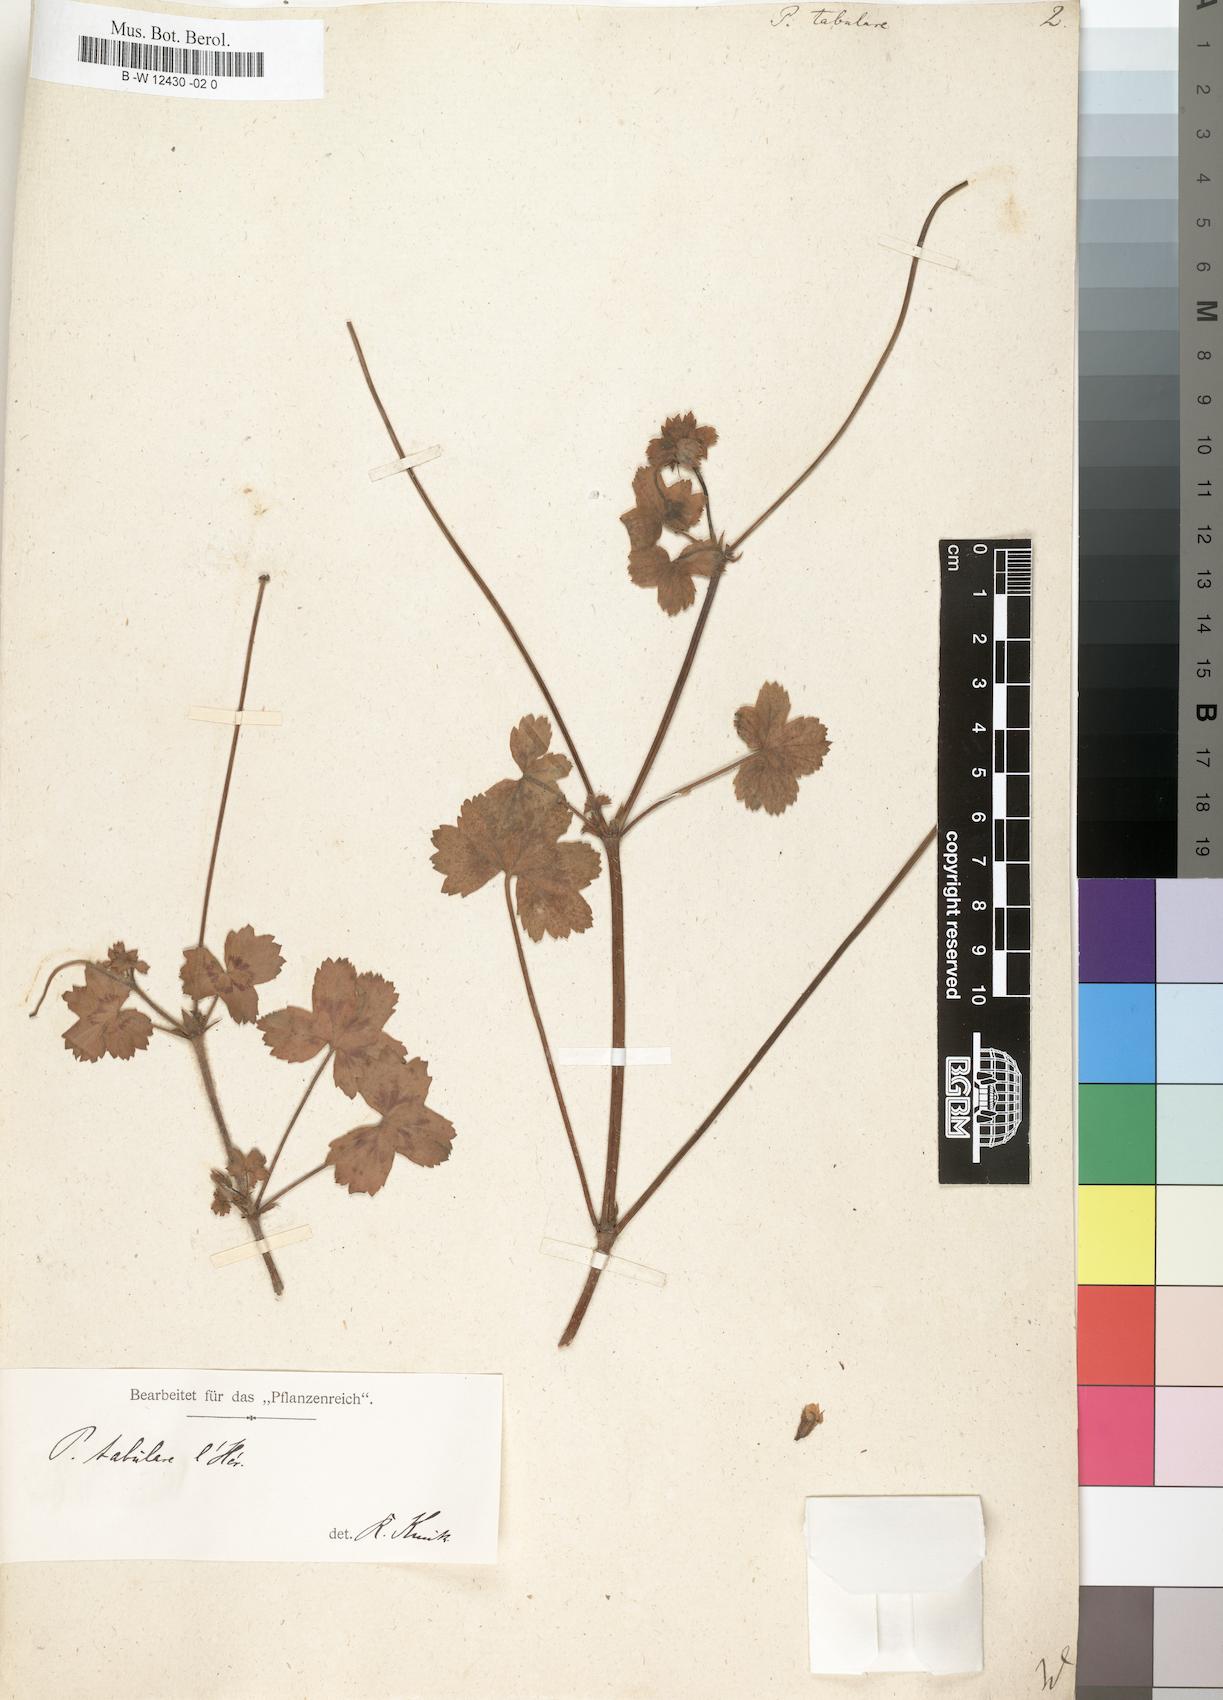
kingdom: Plantae
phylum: Tracheophyta
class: Magnoliopsida
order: Geraniales
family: Geraniaceae
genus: Pelargonium
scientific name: Pelargonium tabulare
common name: Table mountain pelargonium
